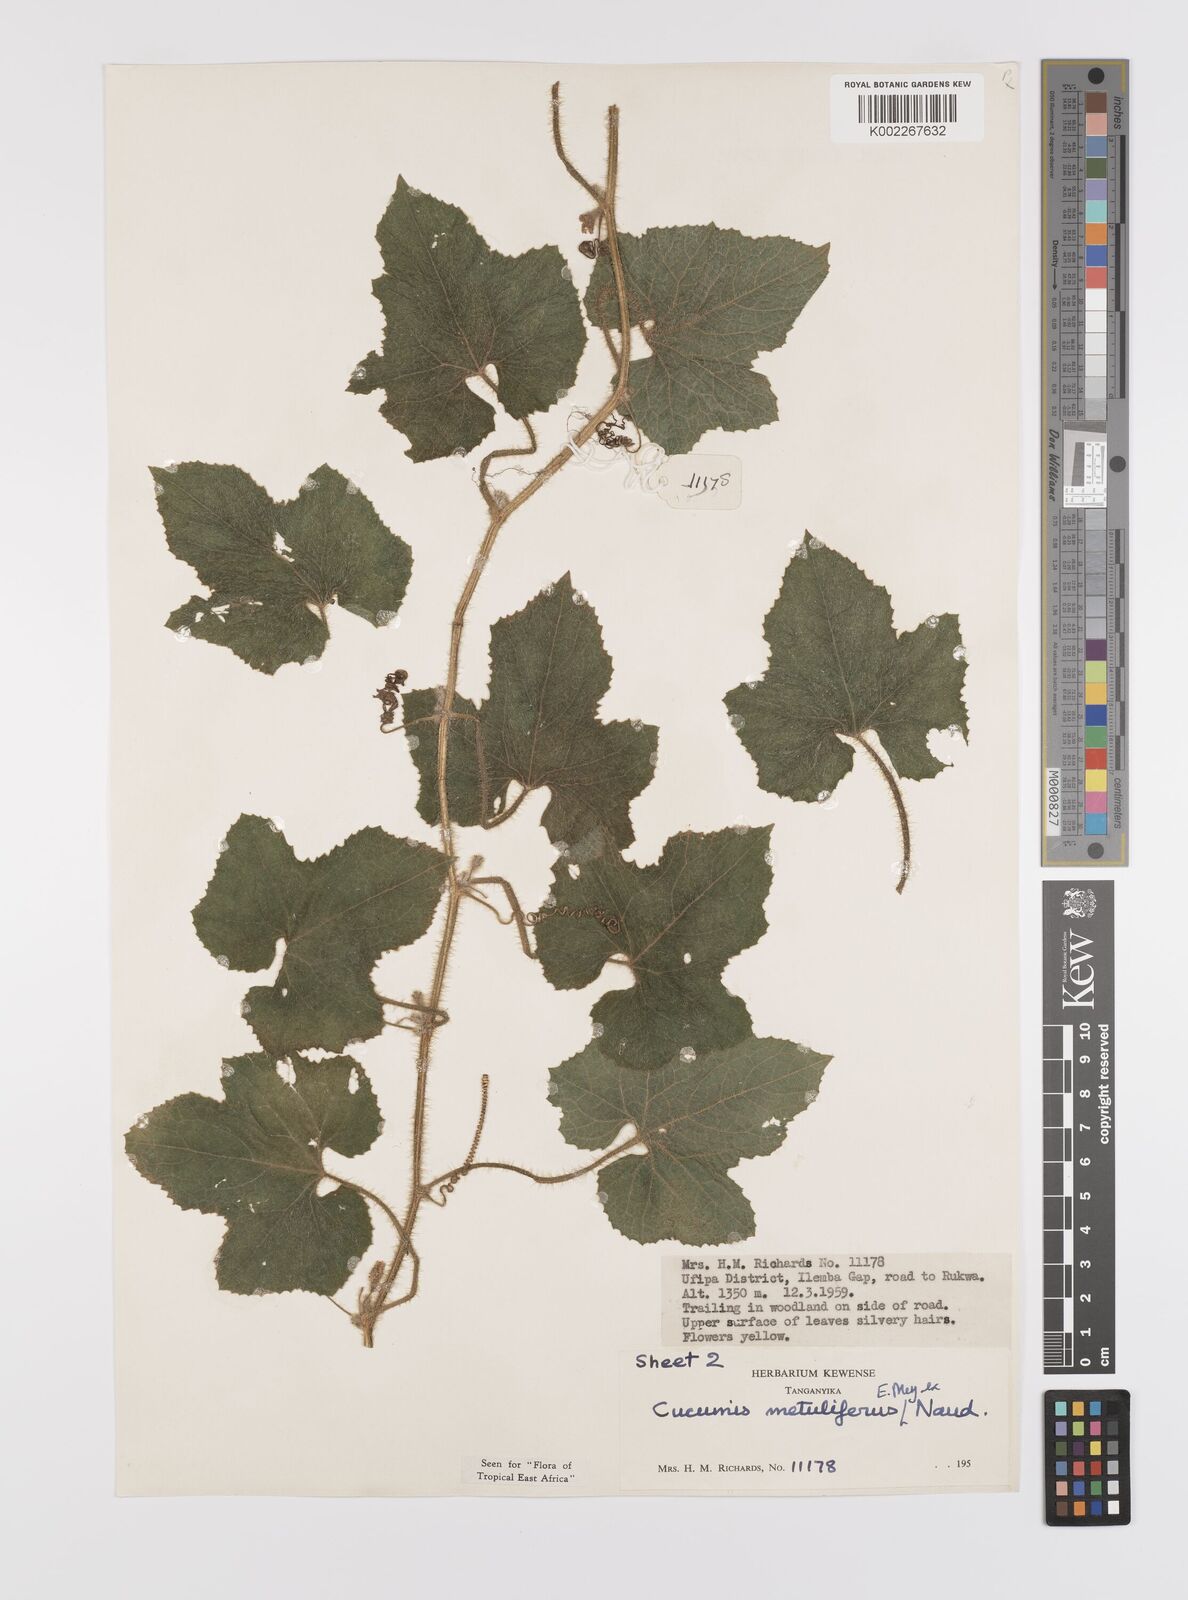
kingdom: Plantae
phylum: Tracheophyta
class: Magnoliopsida
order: Cucurbitales
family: Cucurbitaceae
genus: Cucumis
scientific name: Cucumis metuliferus
